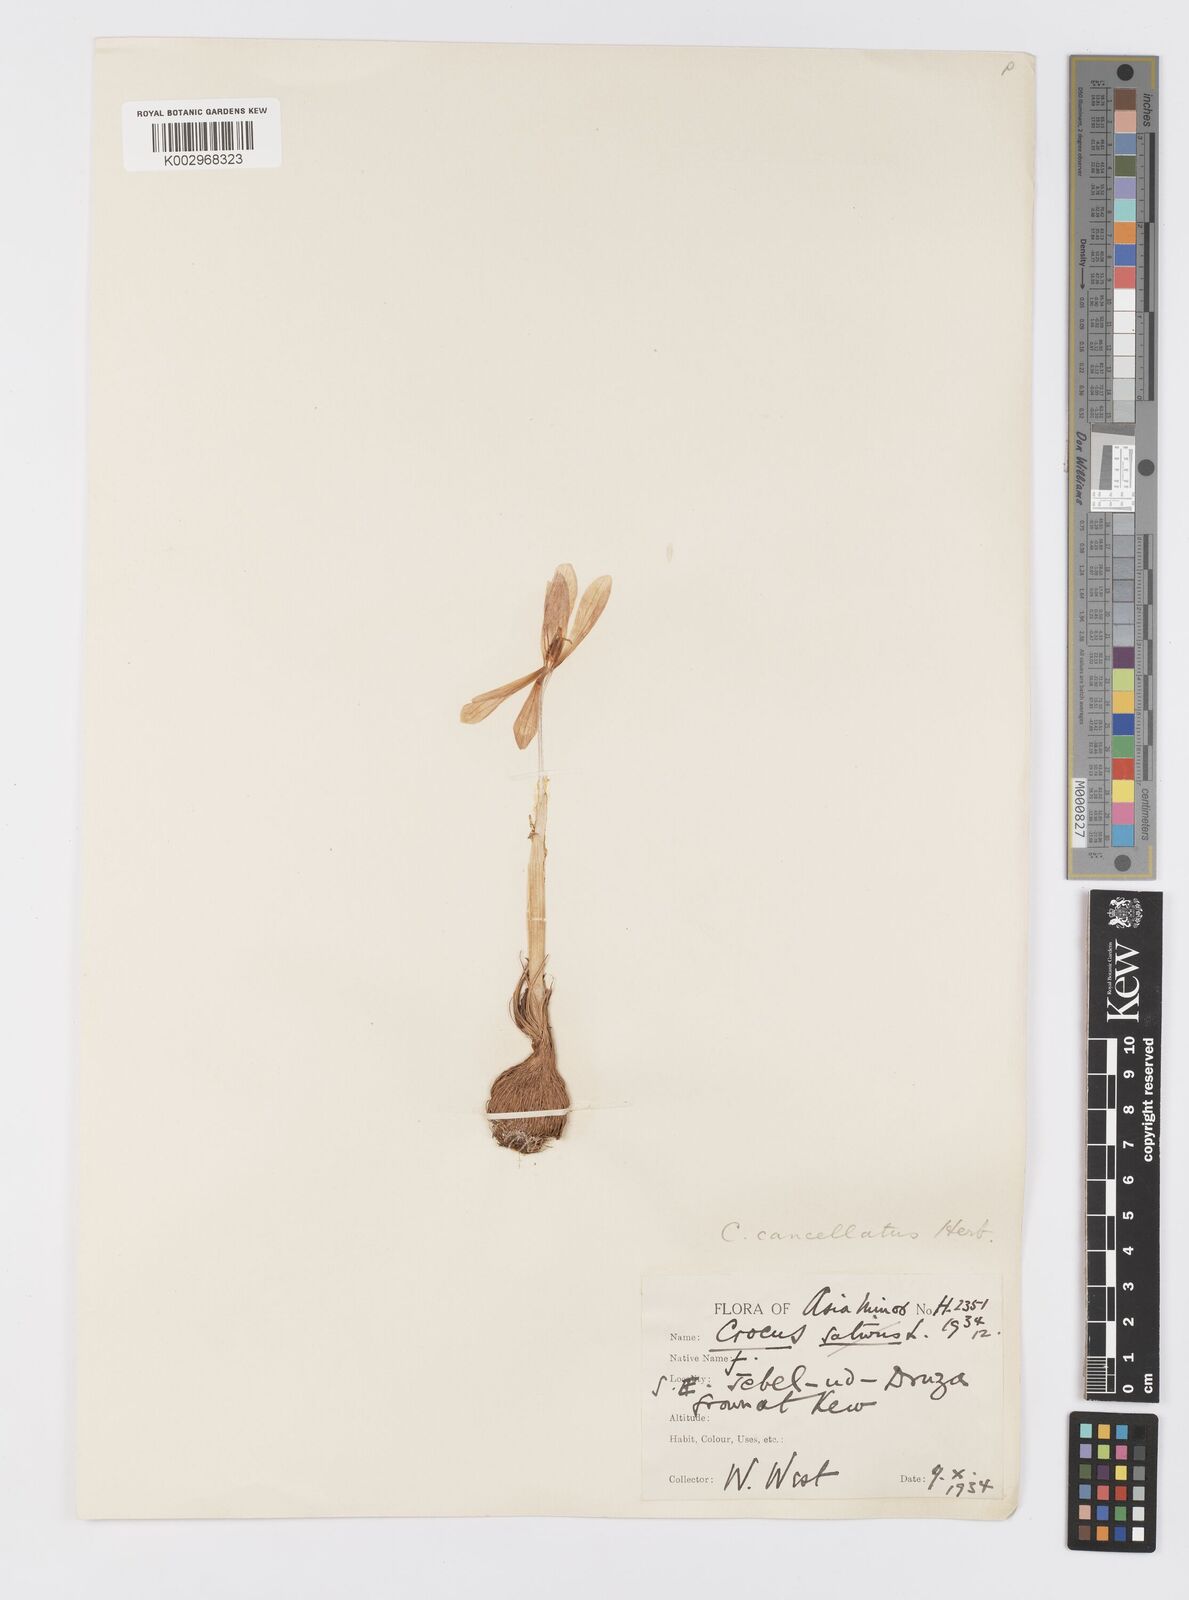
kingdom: Plantae
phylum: Tracheophyta
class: Liliopsida
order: Asparagales
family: Iridaceae
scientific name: Iridaceae
